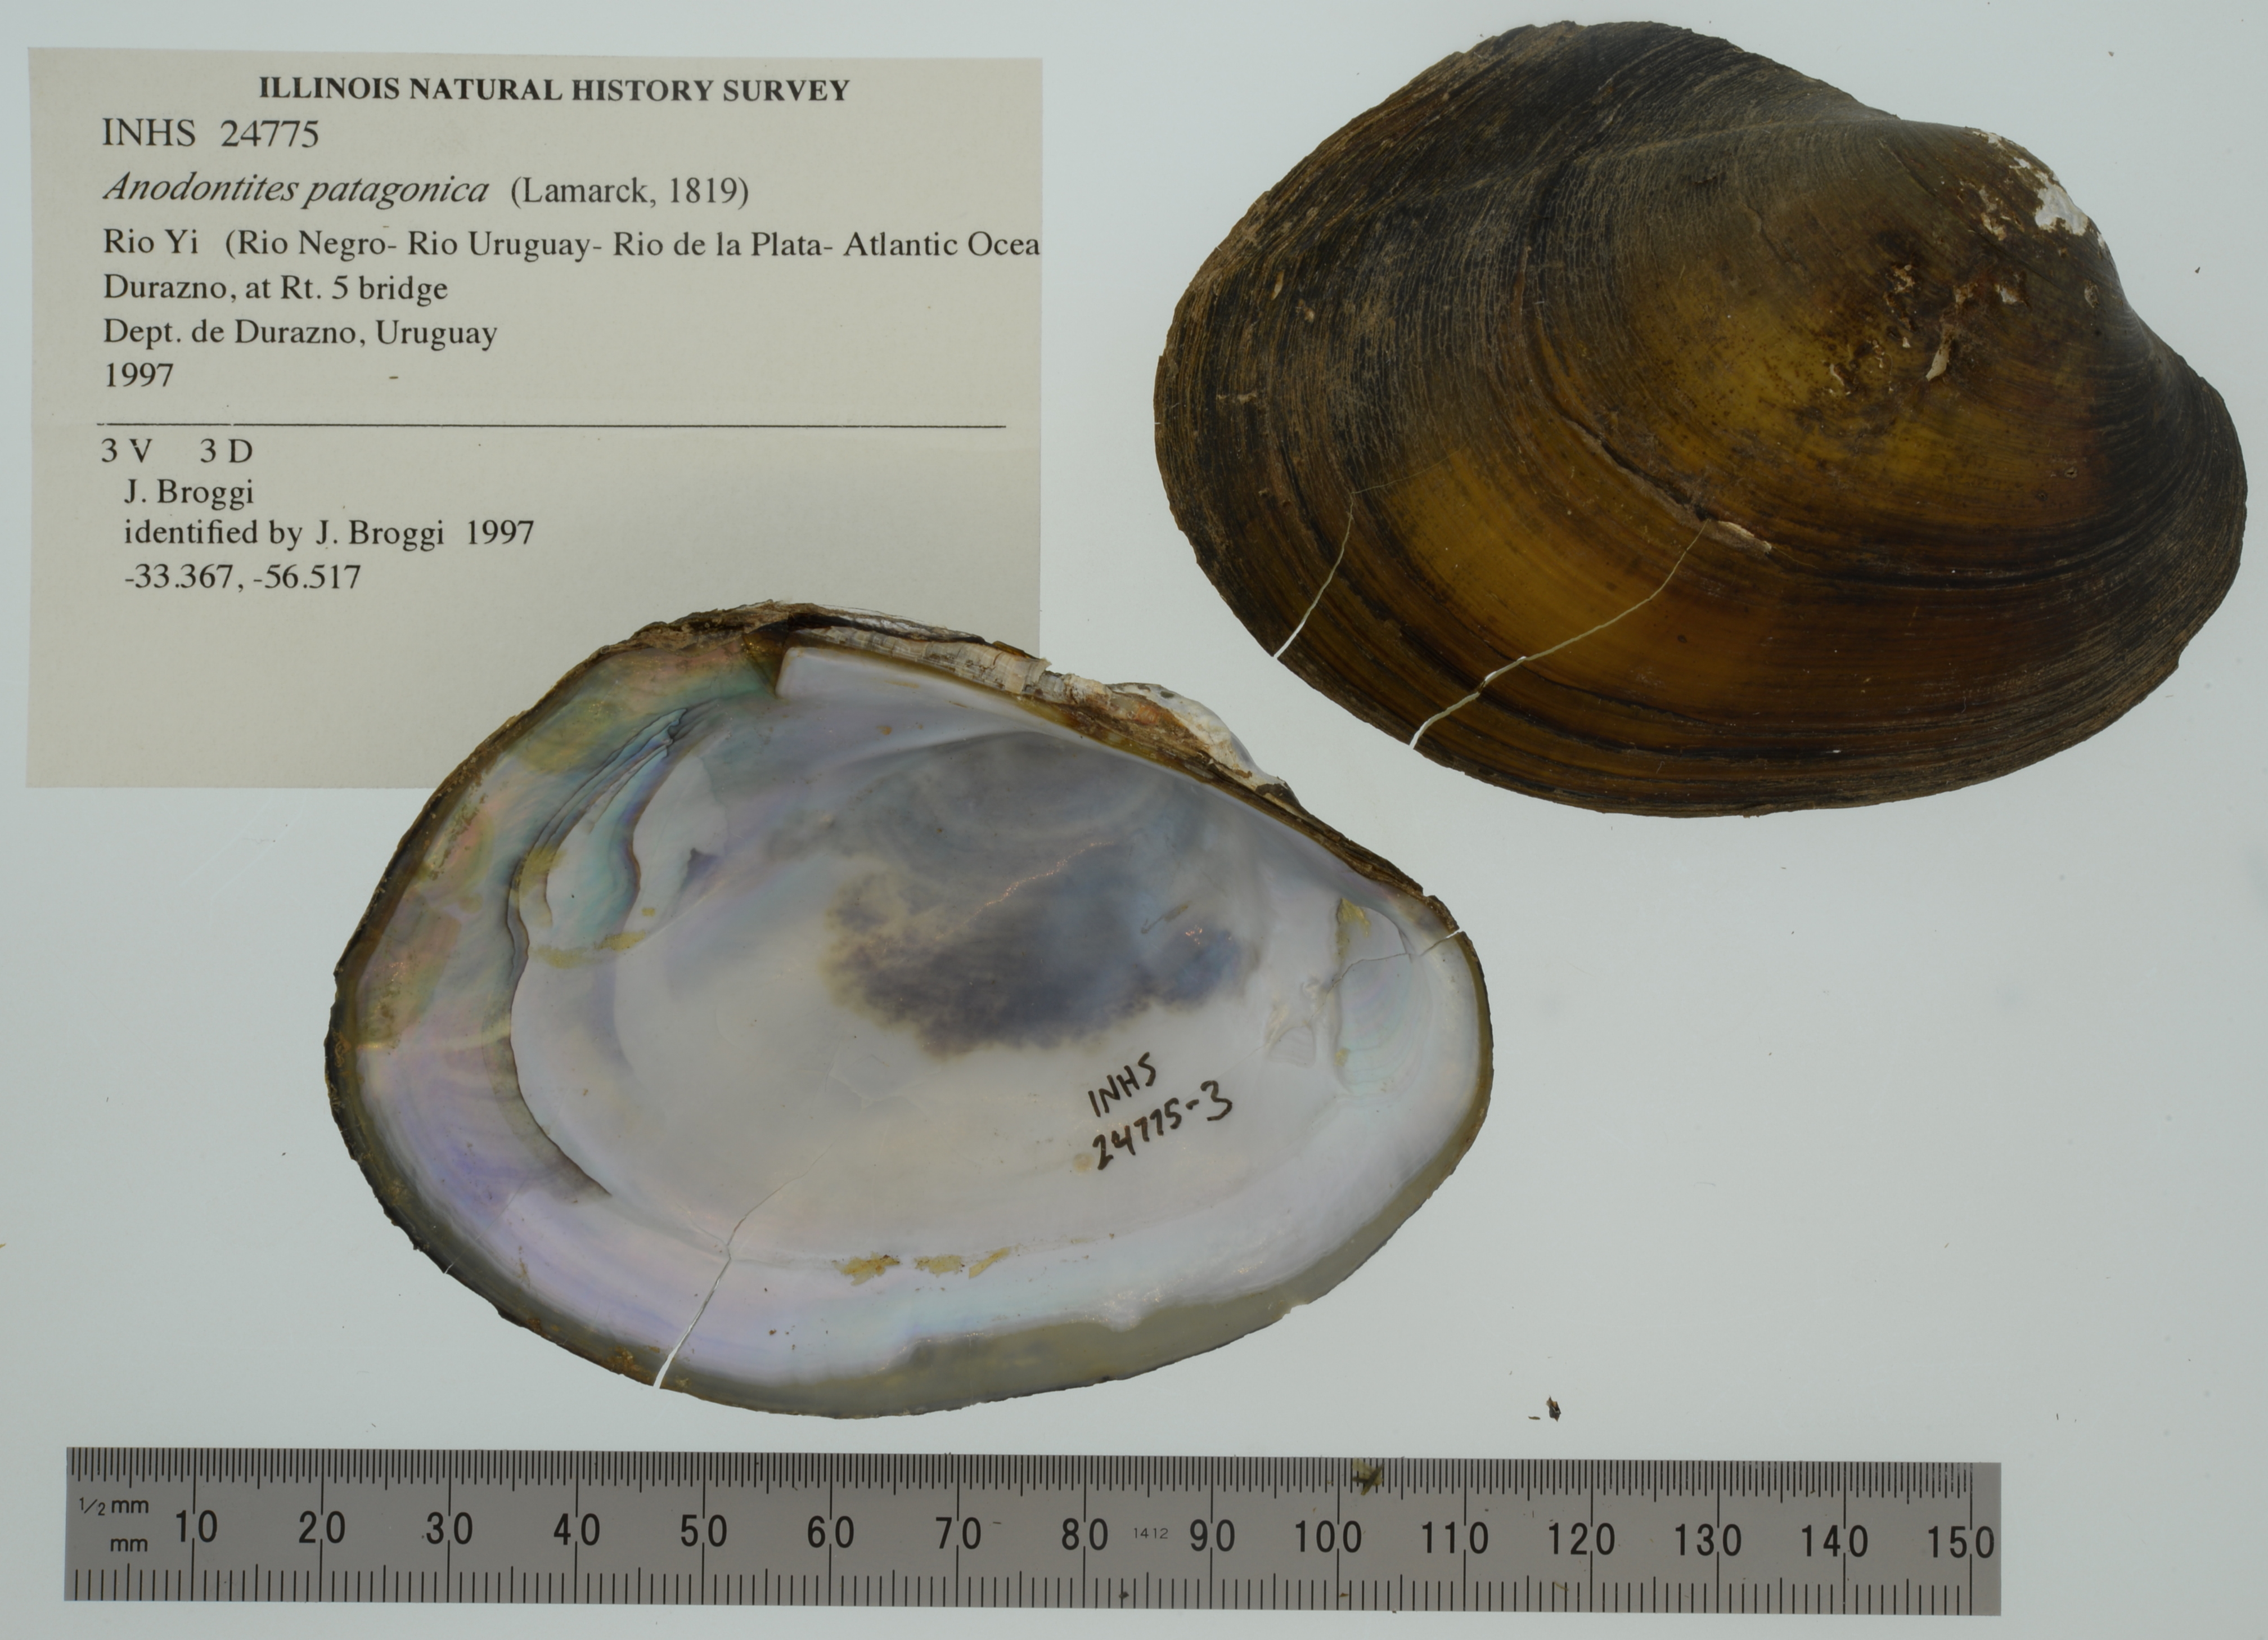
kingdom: Animalia
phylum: Mollusca
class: Bivalvia
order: Unionida
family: Mycetopodidae
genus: Anodontites
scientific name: Anodontites patagonica
